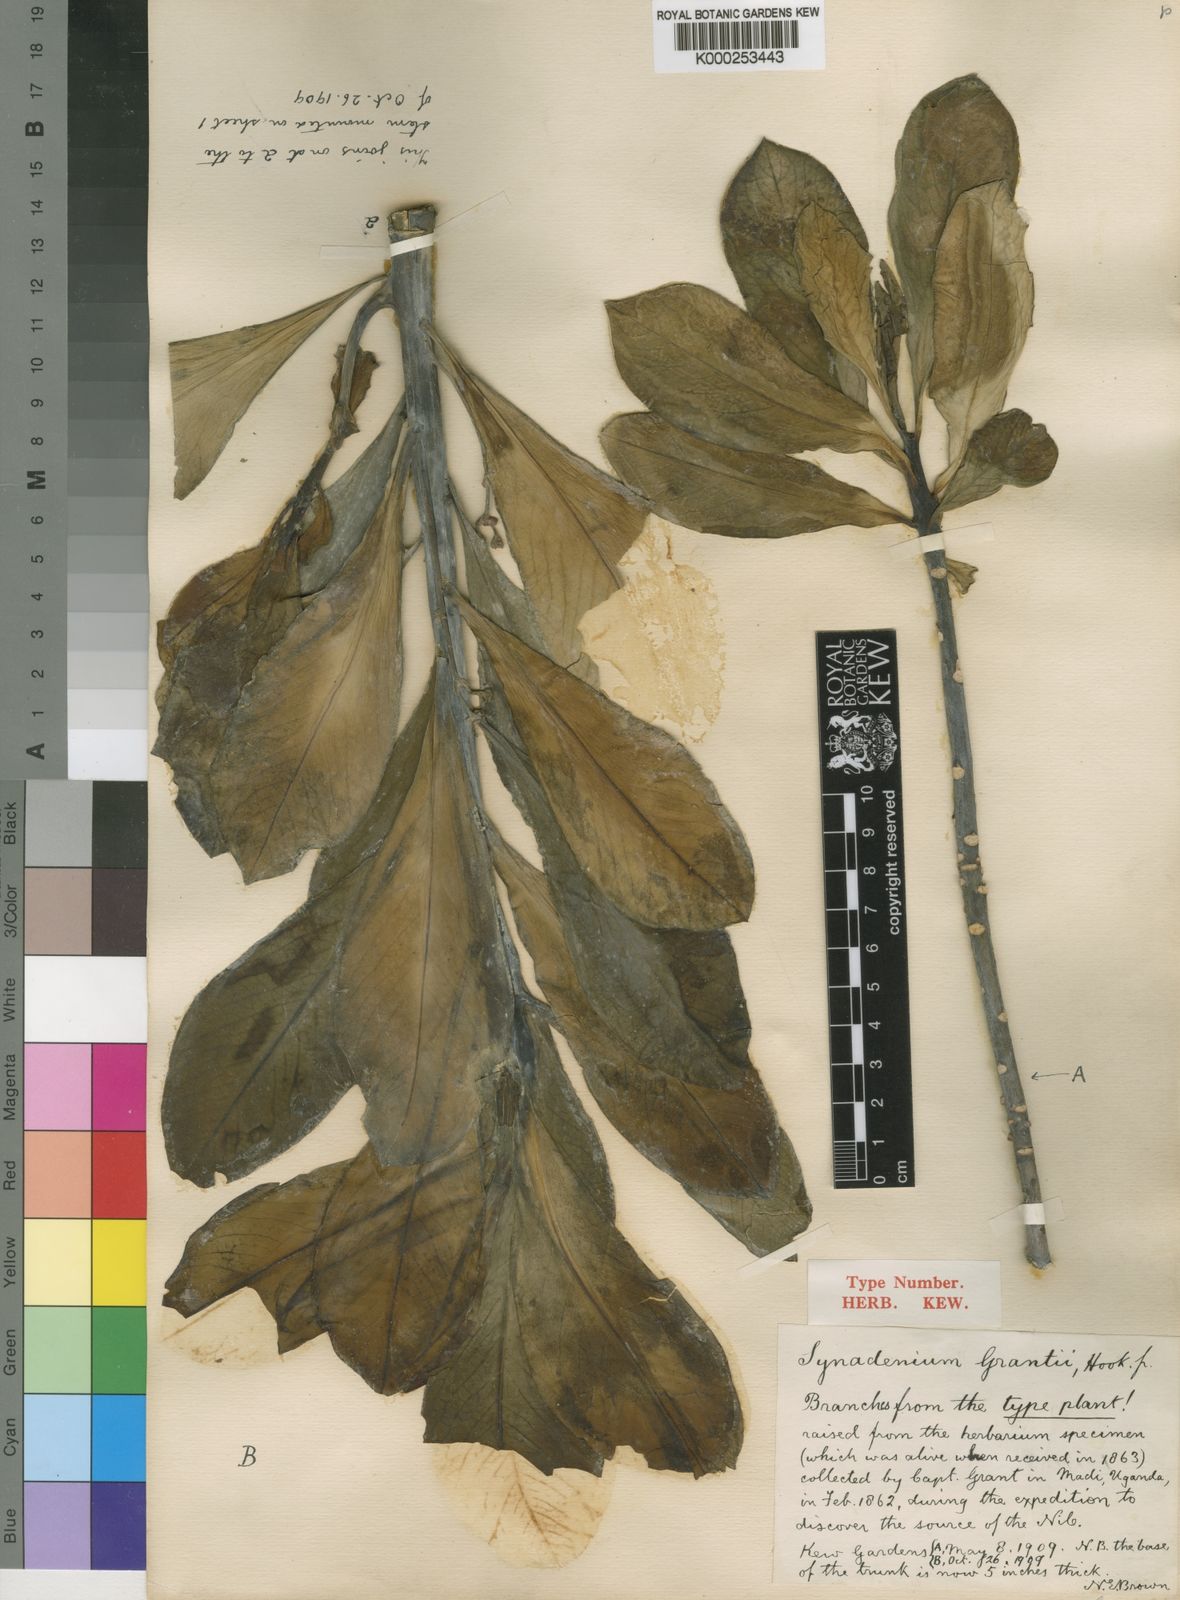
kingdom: Plantae
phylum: Tracheophyta
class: Magnoliopsida
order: Malpighiales
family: Euphorbiaceae
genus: Euphorbia
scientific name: Euphorbia umbellata
